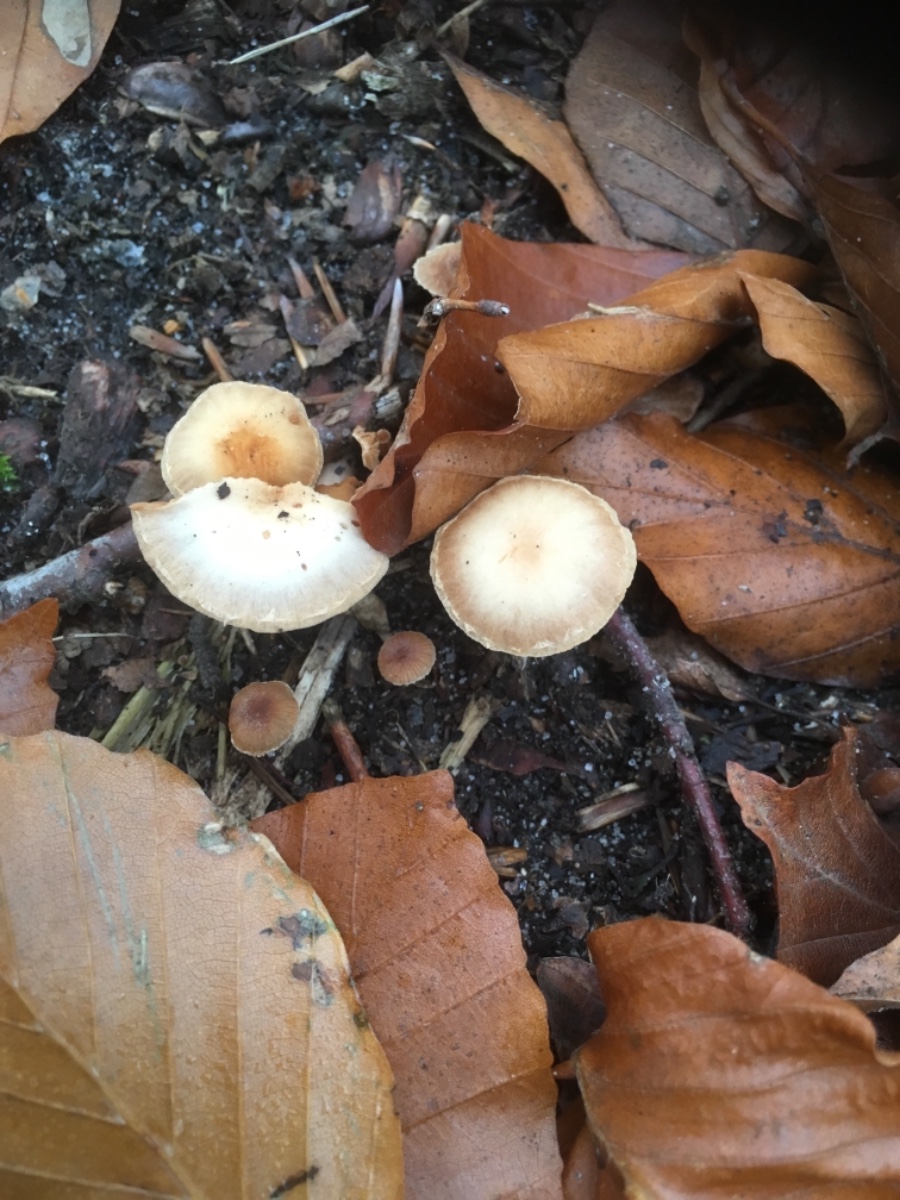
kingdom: Fungi
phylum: Basidiomycota
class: Agaricomycetes
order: Agaricales
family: Tubariaceae
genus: Tubaria
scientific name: Tubaria furfuracea
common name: kliddet fnughat
